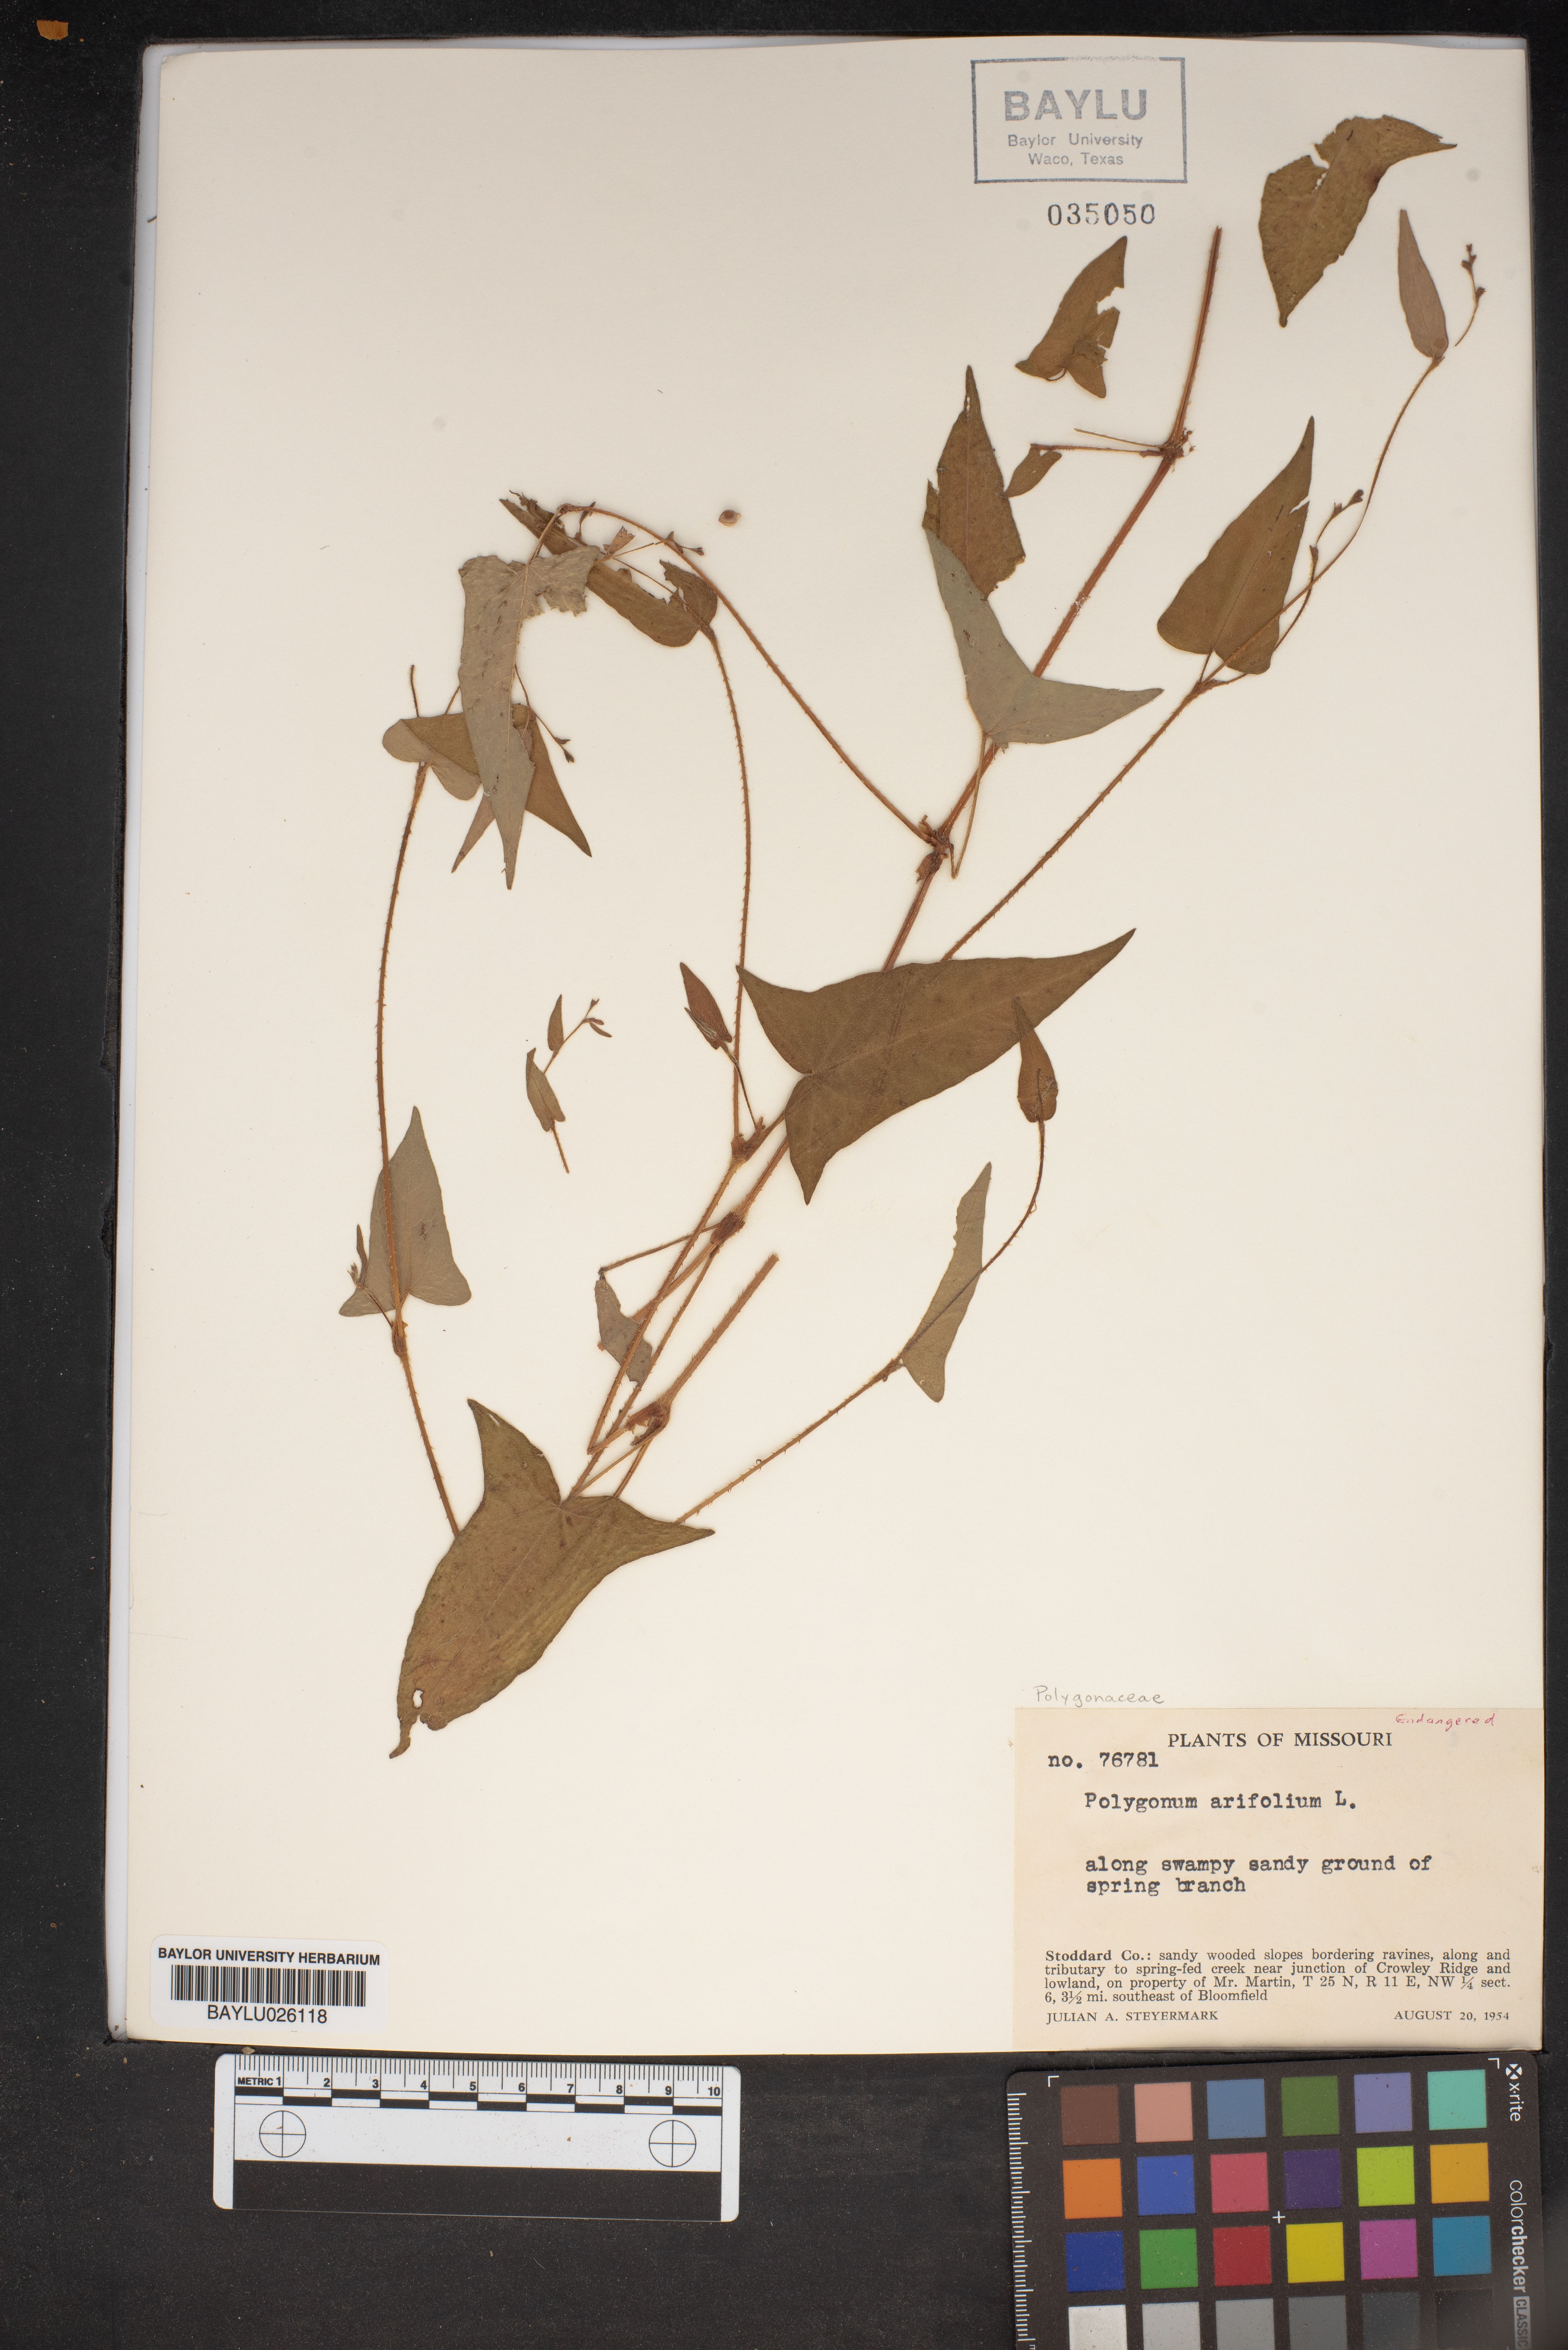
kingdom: Plantae
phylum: Tracheophyta
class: Magnoliopsida
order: Caryophyllales
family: Polygonaceae
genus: Persicaria
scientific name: Persicaria arifolia
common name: Halberd-leaved tear-thumb
